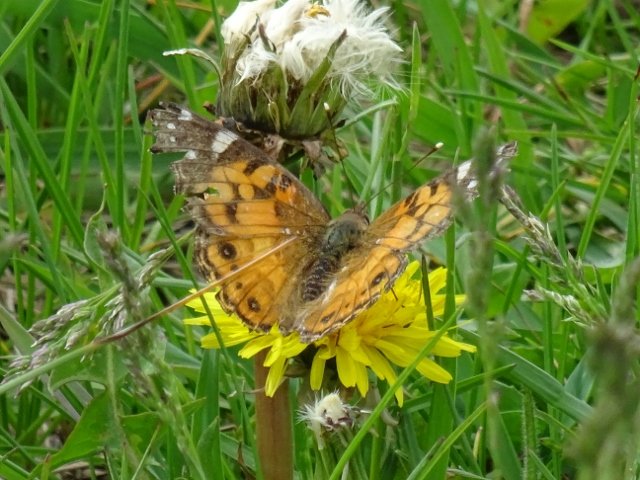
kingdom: Animalia
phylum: Arthropoda
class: Insecta
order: Lepidoptera
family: Nymphalidae
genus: Vanessa
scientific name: Vanessa virginiensis
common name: American Lady
